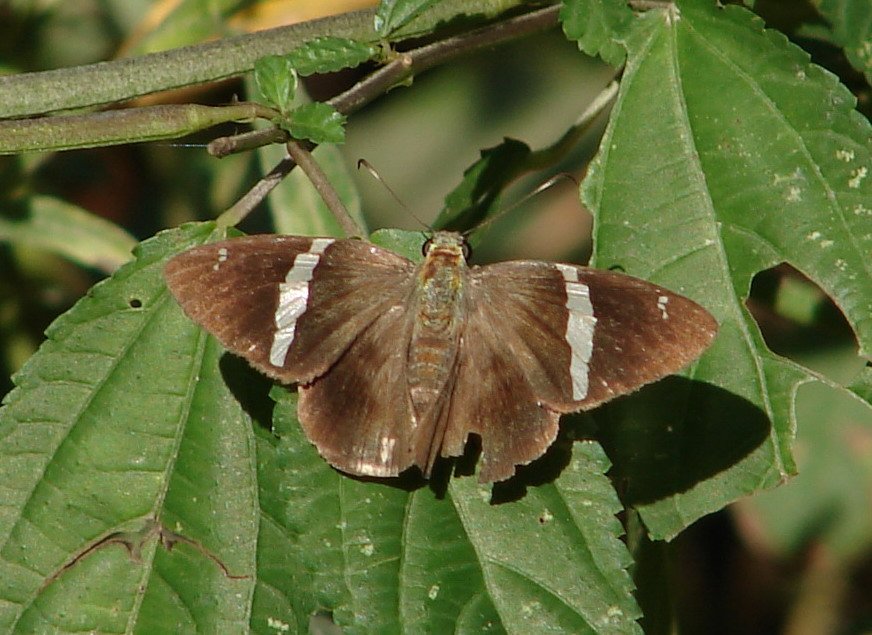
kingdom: Animalia
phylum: Arthropoda
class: Insecta
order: Lepidoptera
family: Hesperiidae
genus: Autochton
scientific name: Autochton neis
